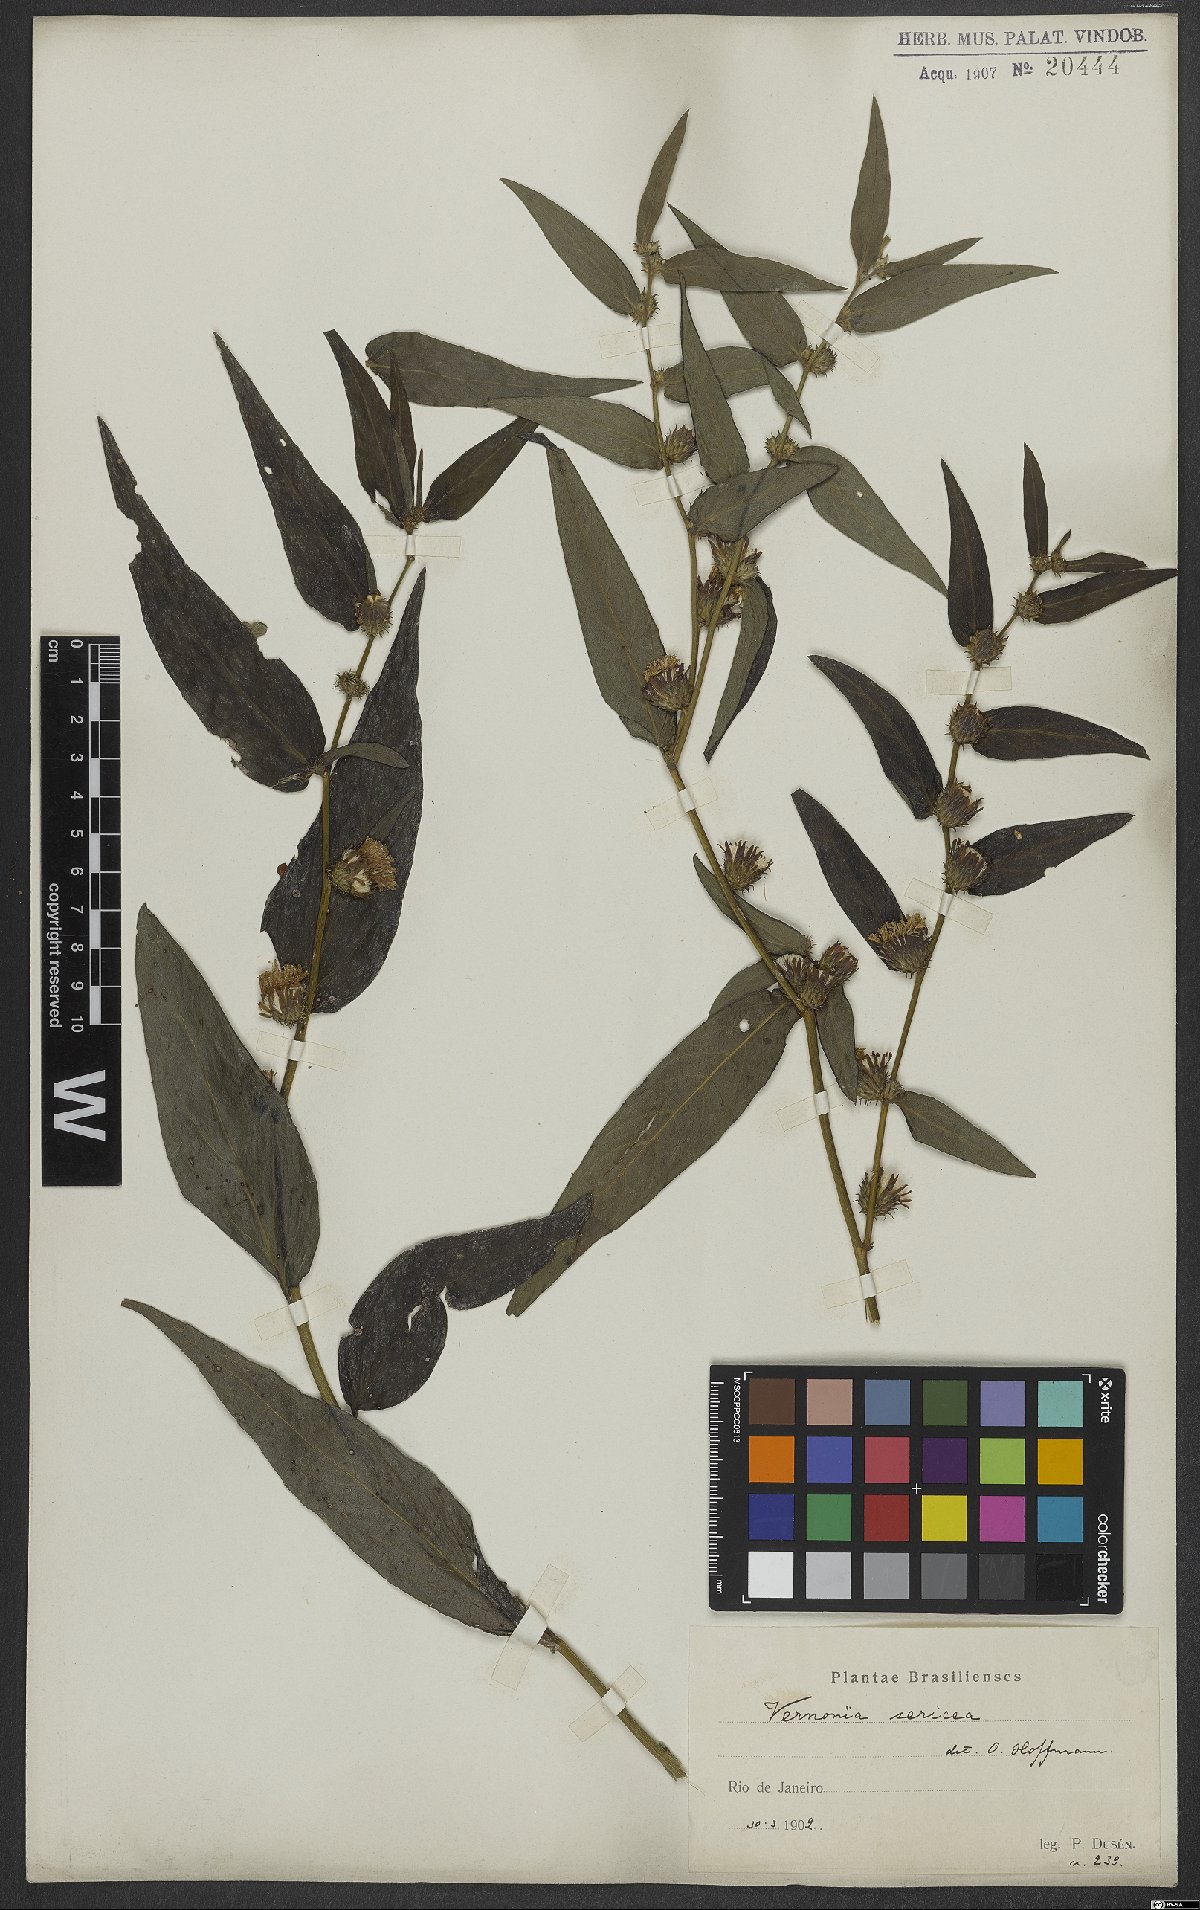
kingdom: Plantae
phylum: Tracheophyta
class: Magnoliopsida
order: Asterales
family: Asteraceae
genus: Lepidaploa
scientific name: Lepidaploa sericea
